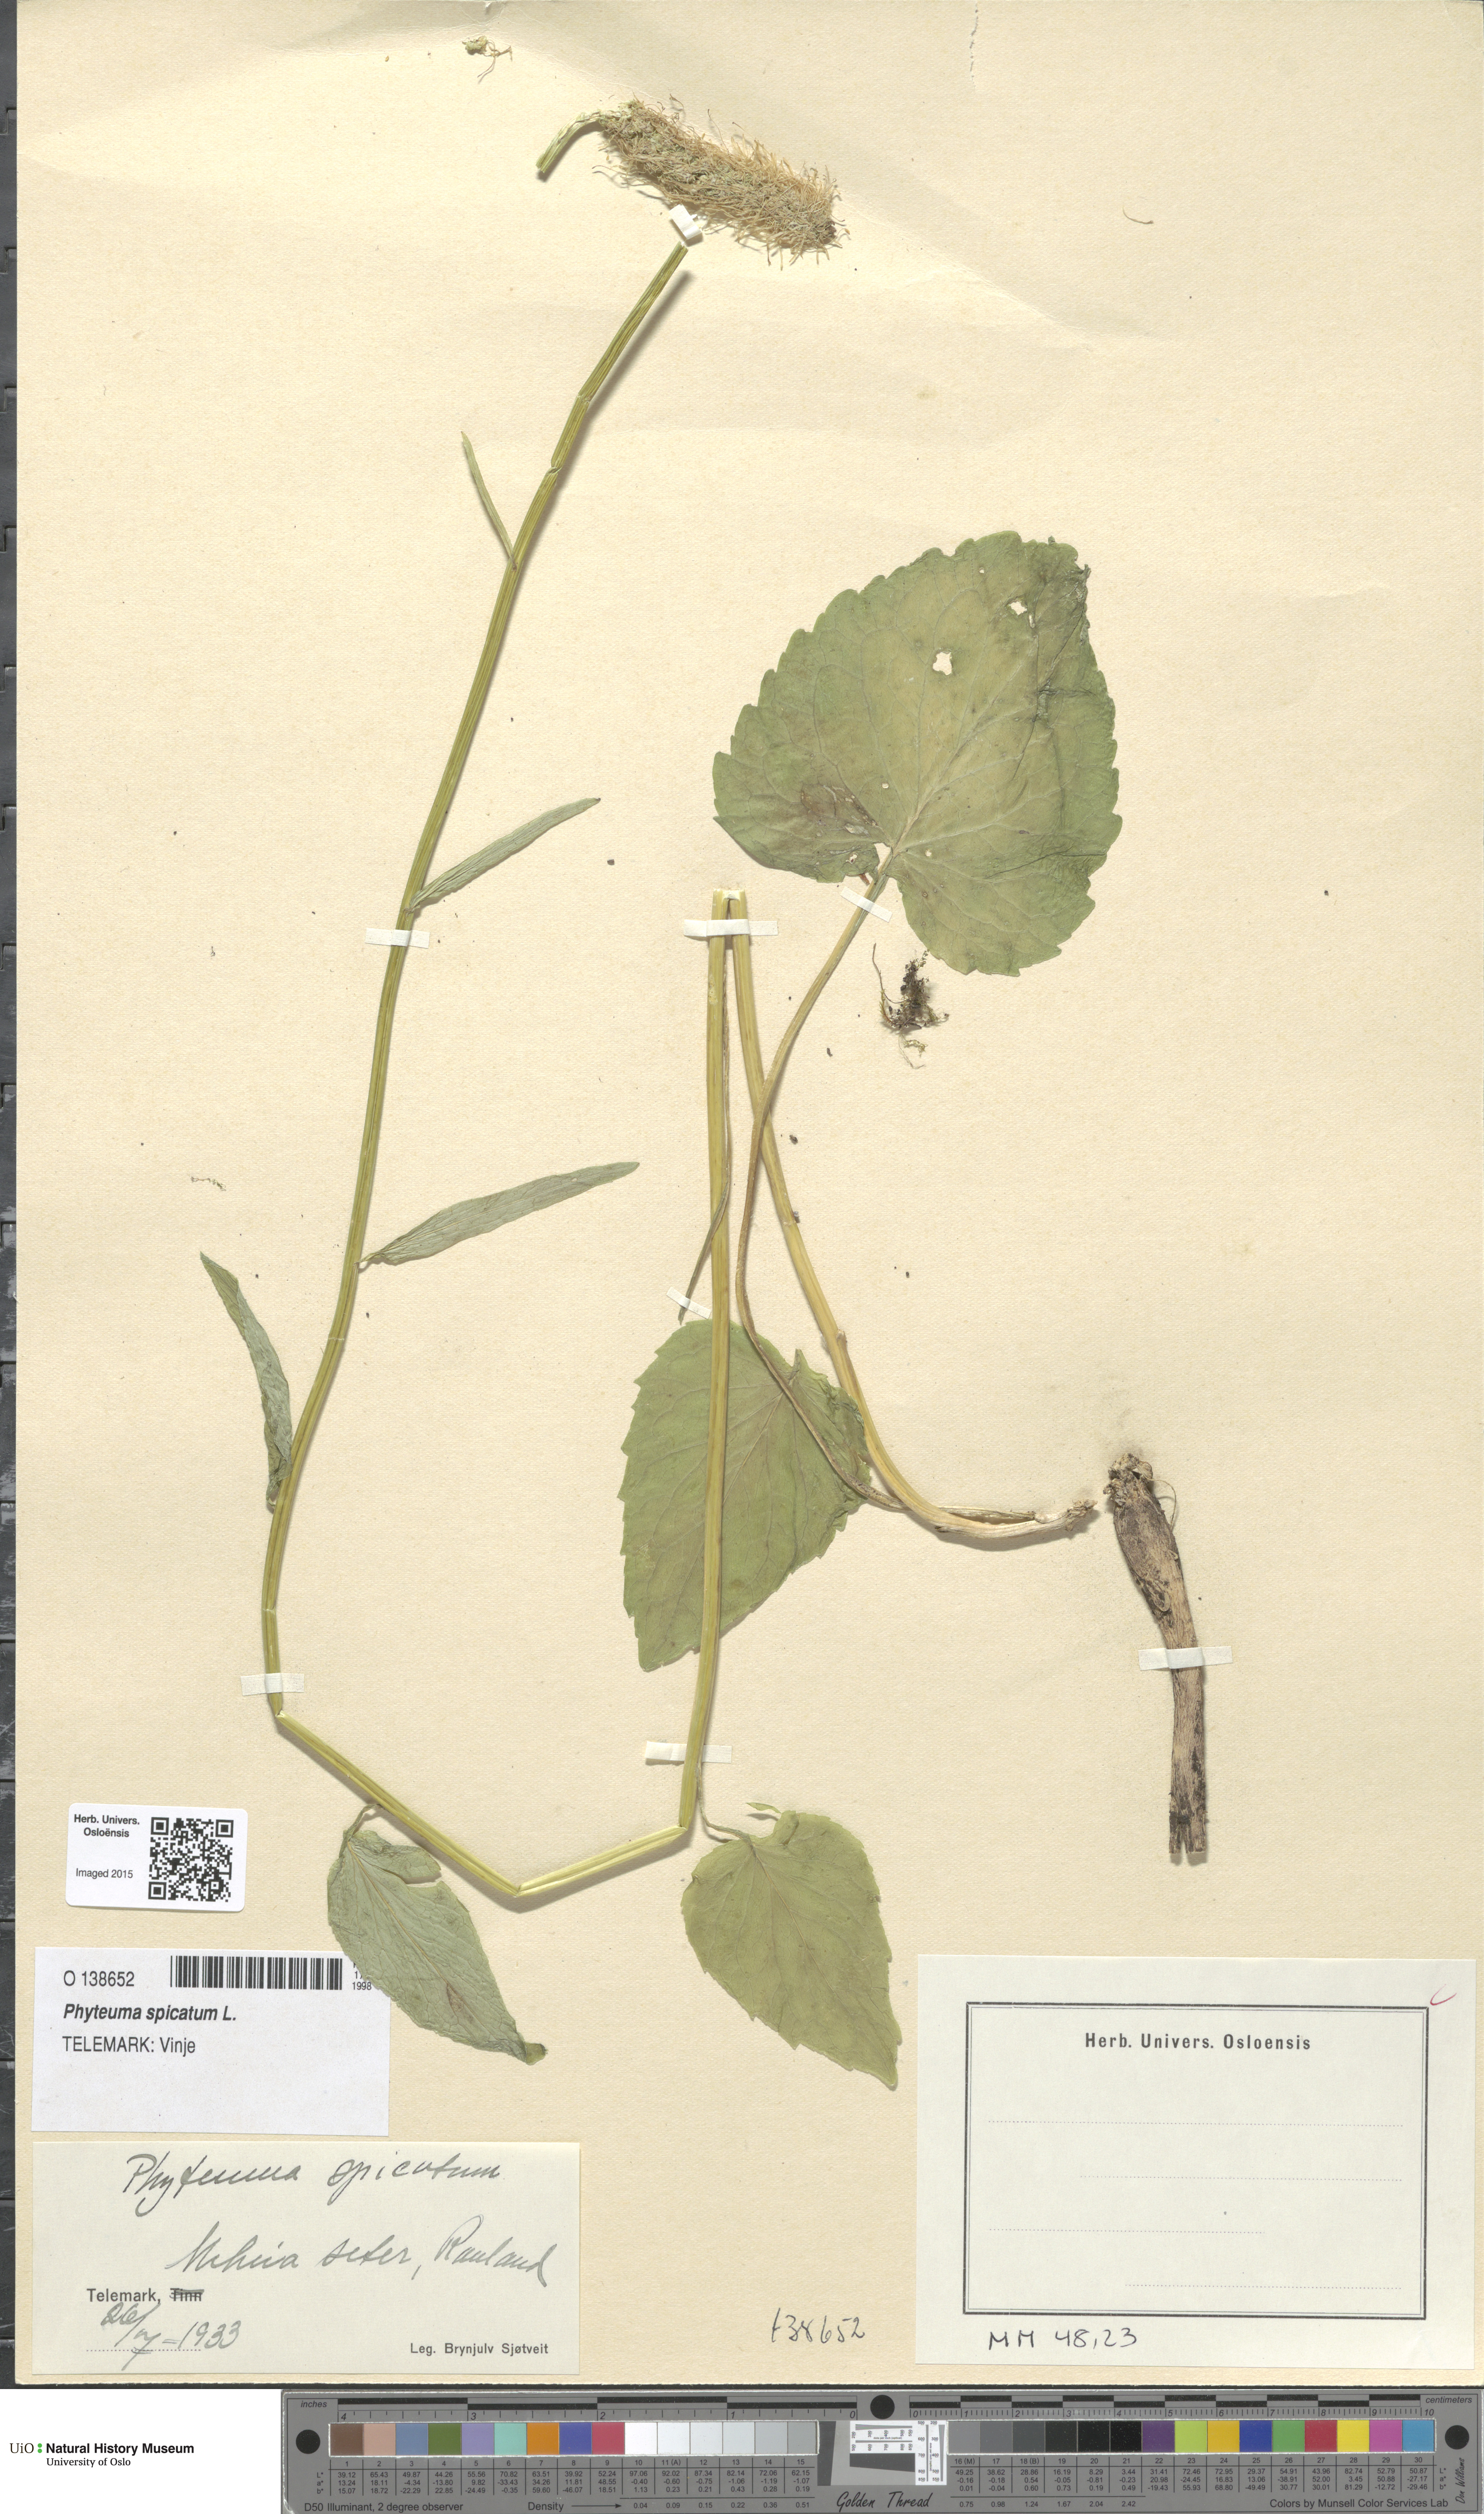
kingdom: Plantae
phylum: Tracheophyta
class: Magnoliopsida
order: Asterales
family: Campanulaceae
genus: Phyteuma
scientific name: Phyteuma spicatum
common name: Spiked rampion
